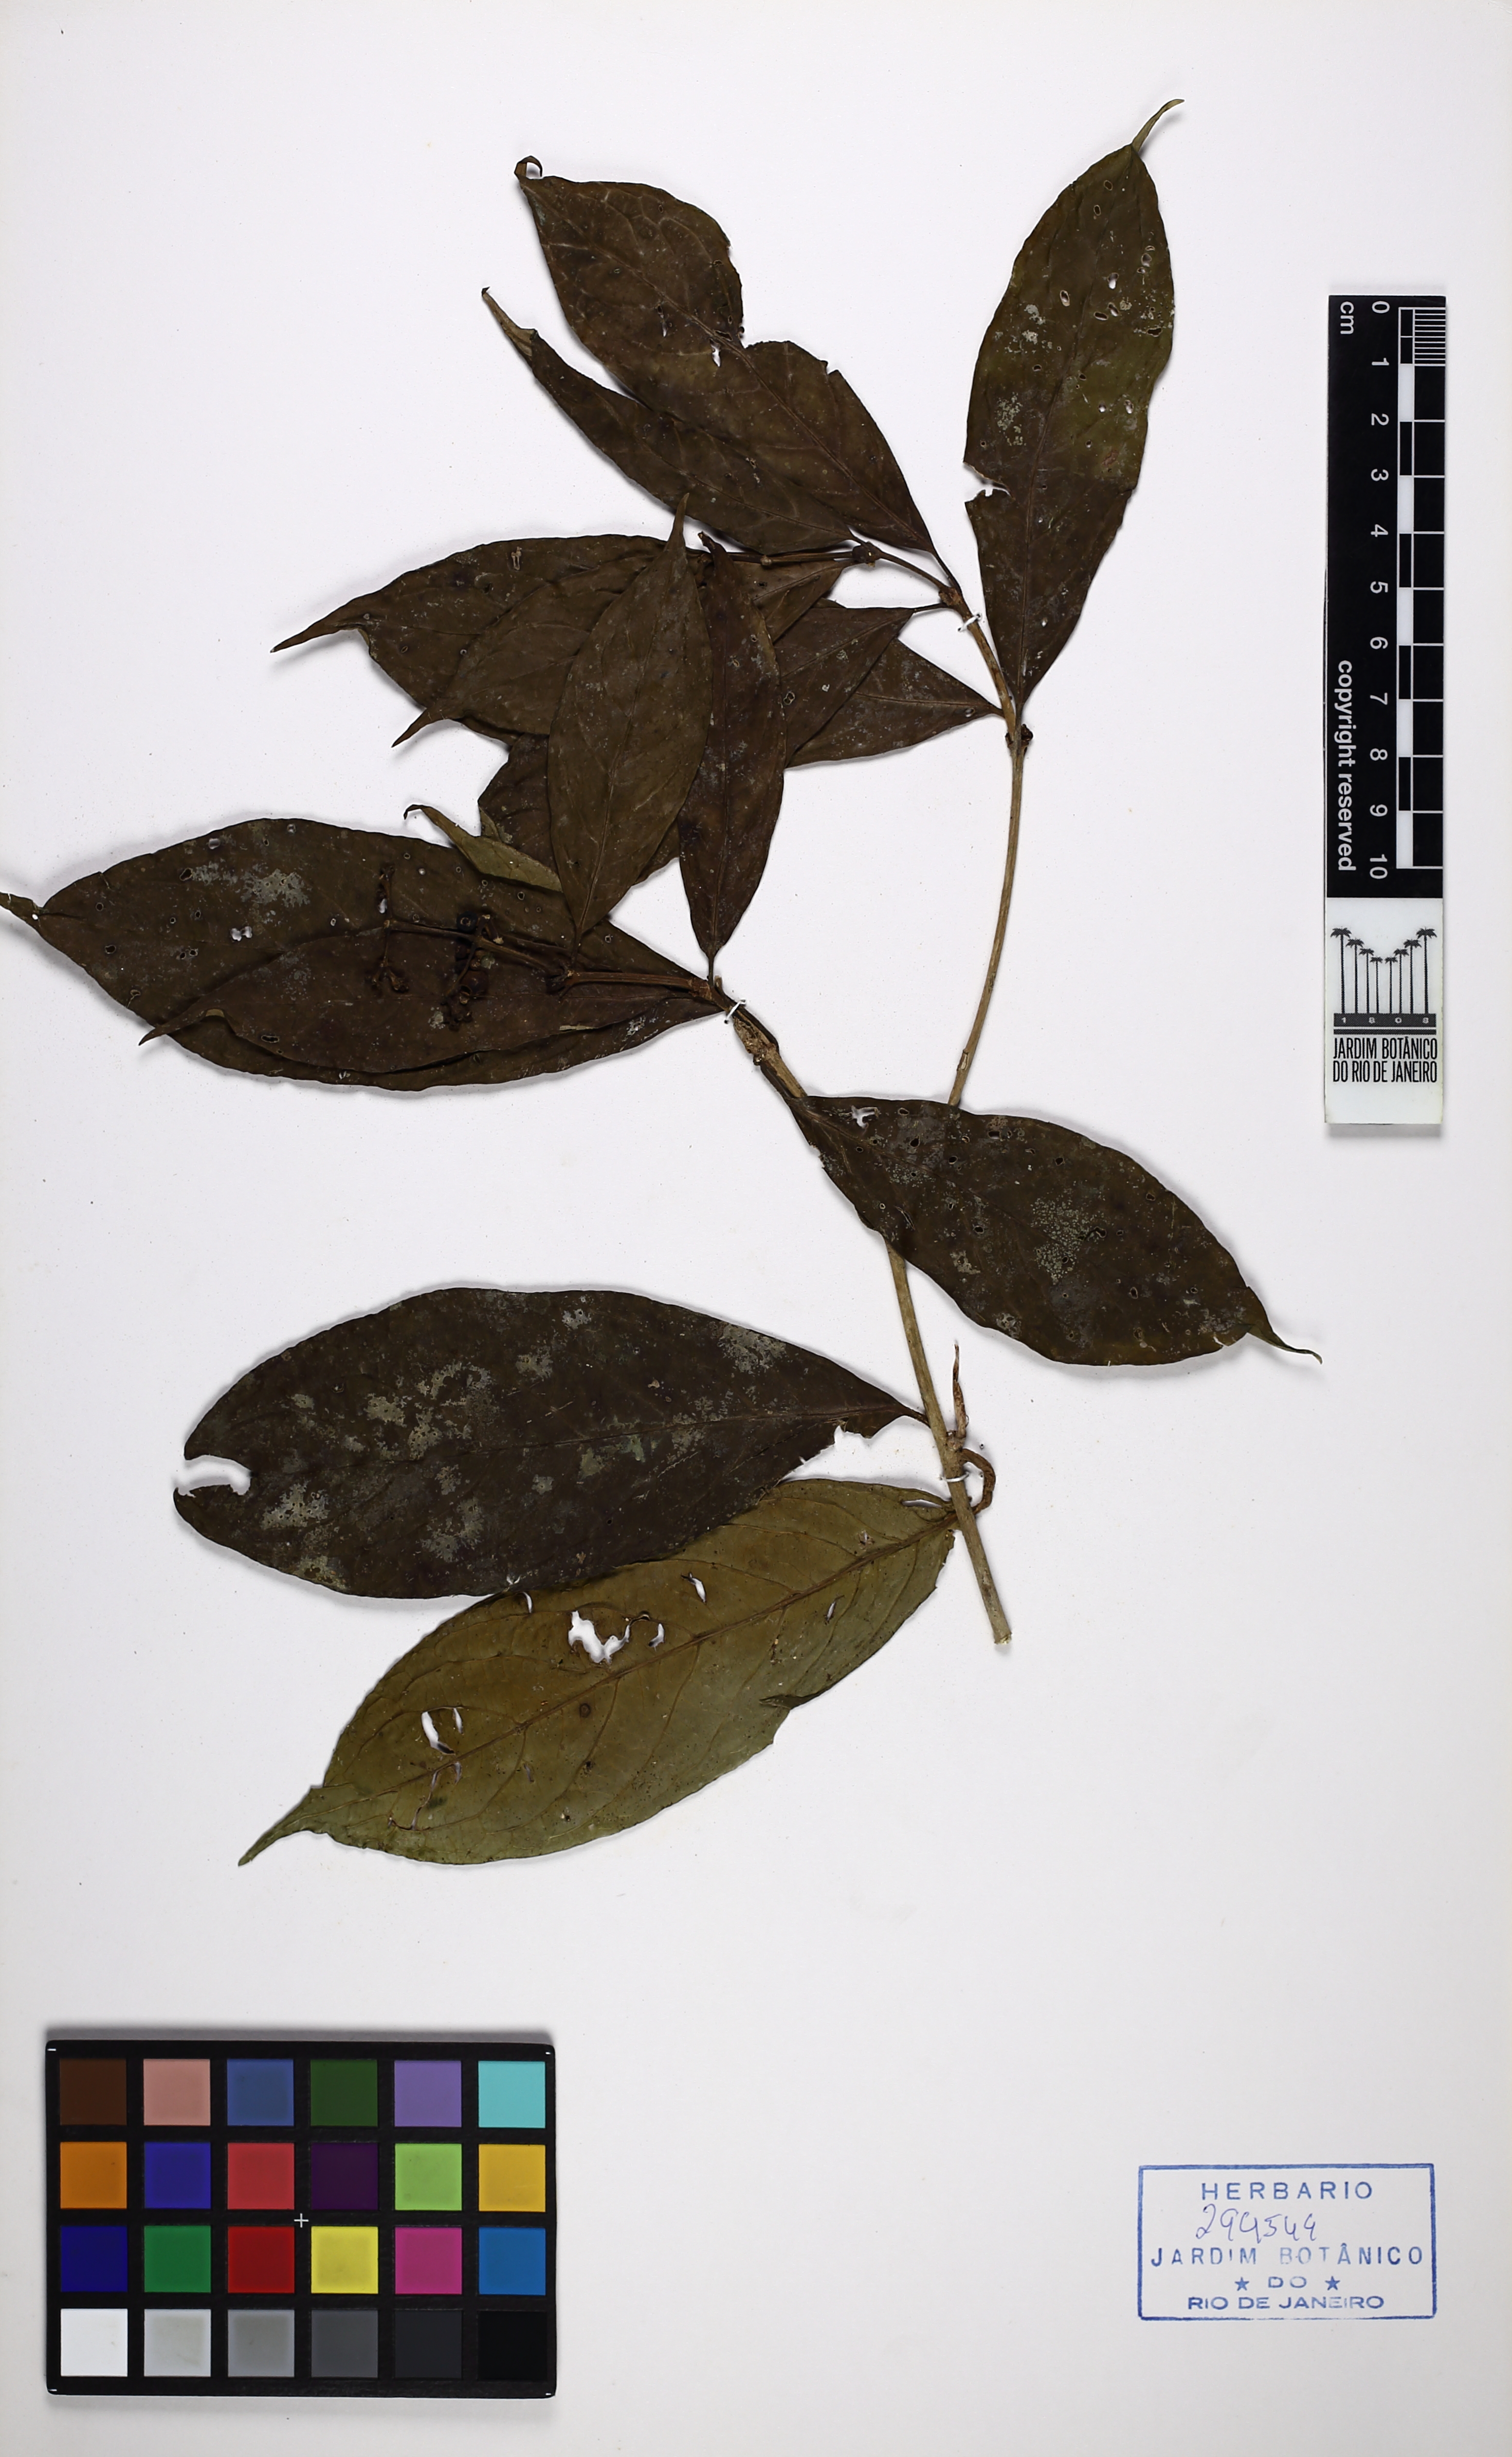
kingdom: Plantae
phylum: Tracheophyta
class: Magnoliopsida
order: Gentianales
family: Rubiaceae
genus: Rudgea
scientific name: Rudgea recurva
